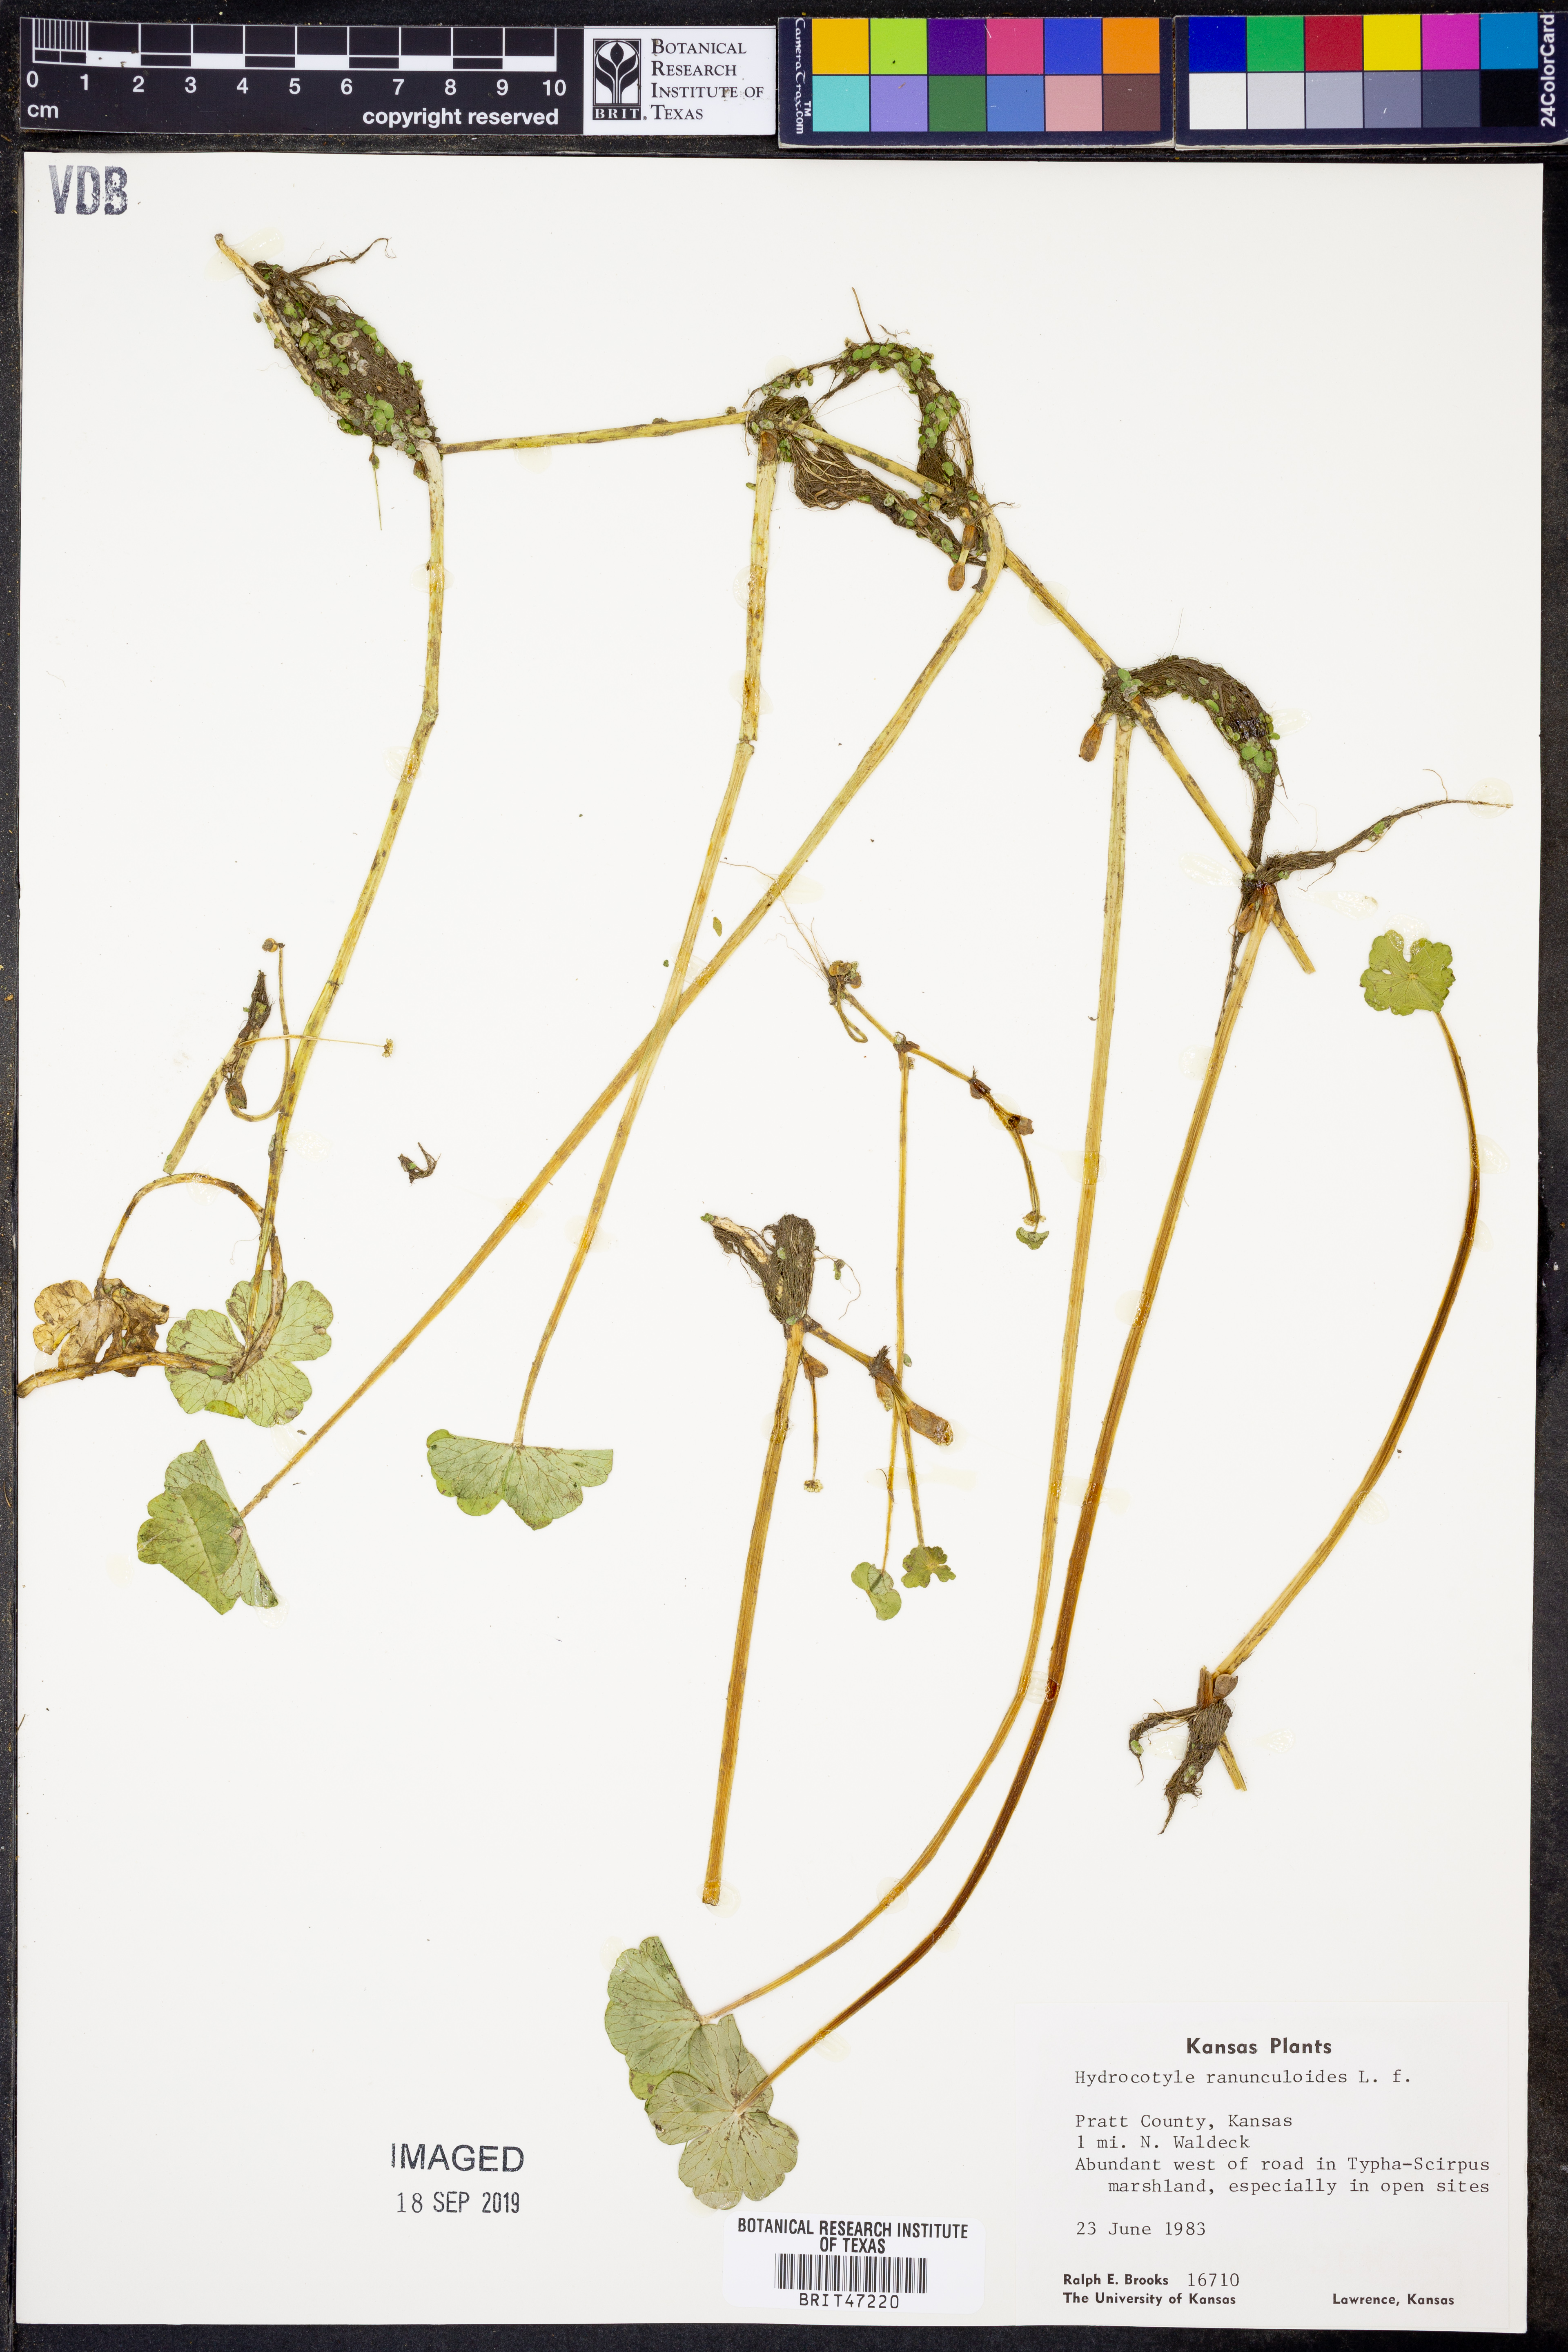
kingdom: Plantae
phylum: Tracheophyta
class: Magnoliopsida
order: Apiales
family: Araliaceae
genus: Hydrocotyle
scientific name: Hydrocotyle ranunculoides
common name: Floating pennywort
